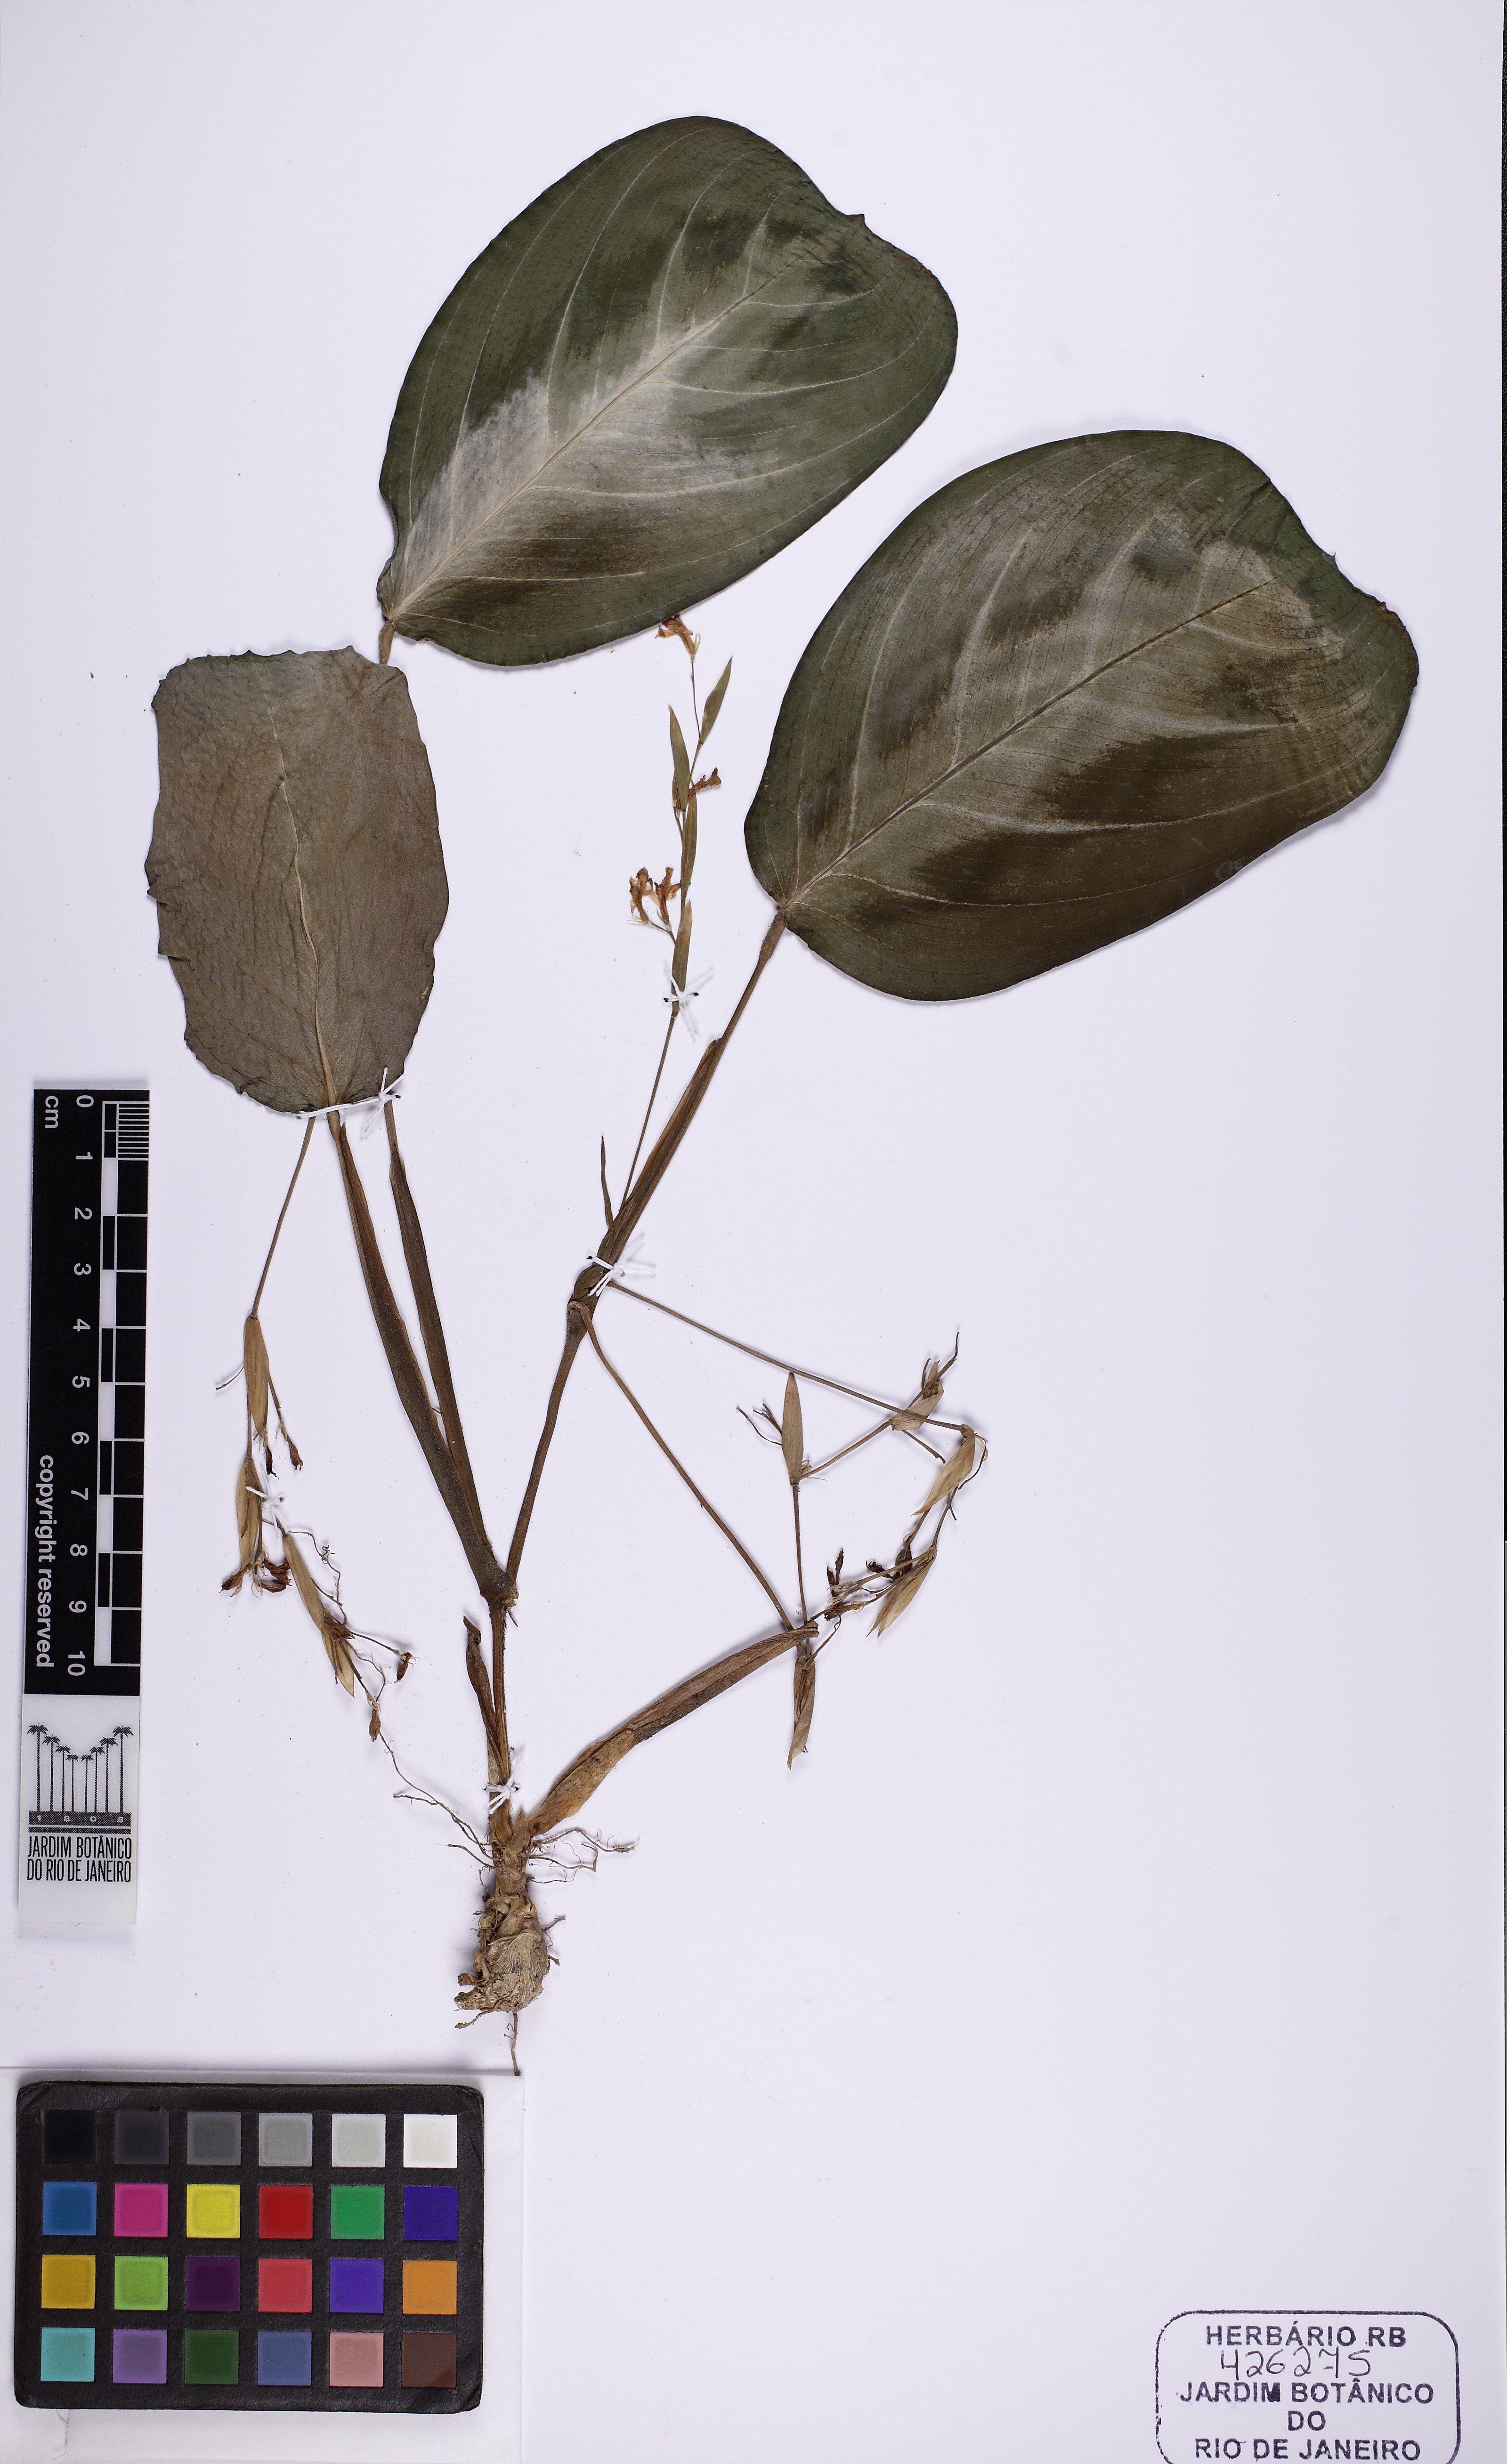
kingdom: Plantae
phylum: Tracheophyta
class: Liliopsida
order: Zingiberales
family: Marantaceae
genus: Maranta
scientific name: Maranta cristata
